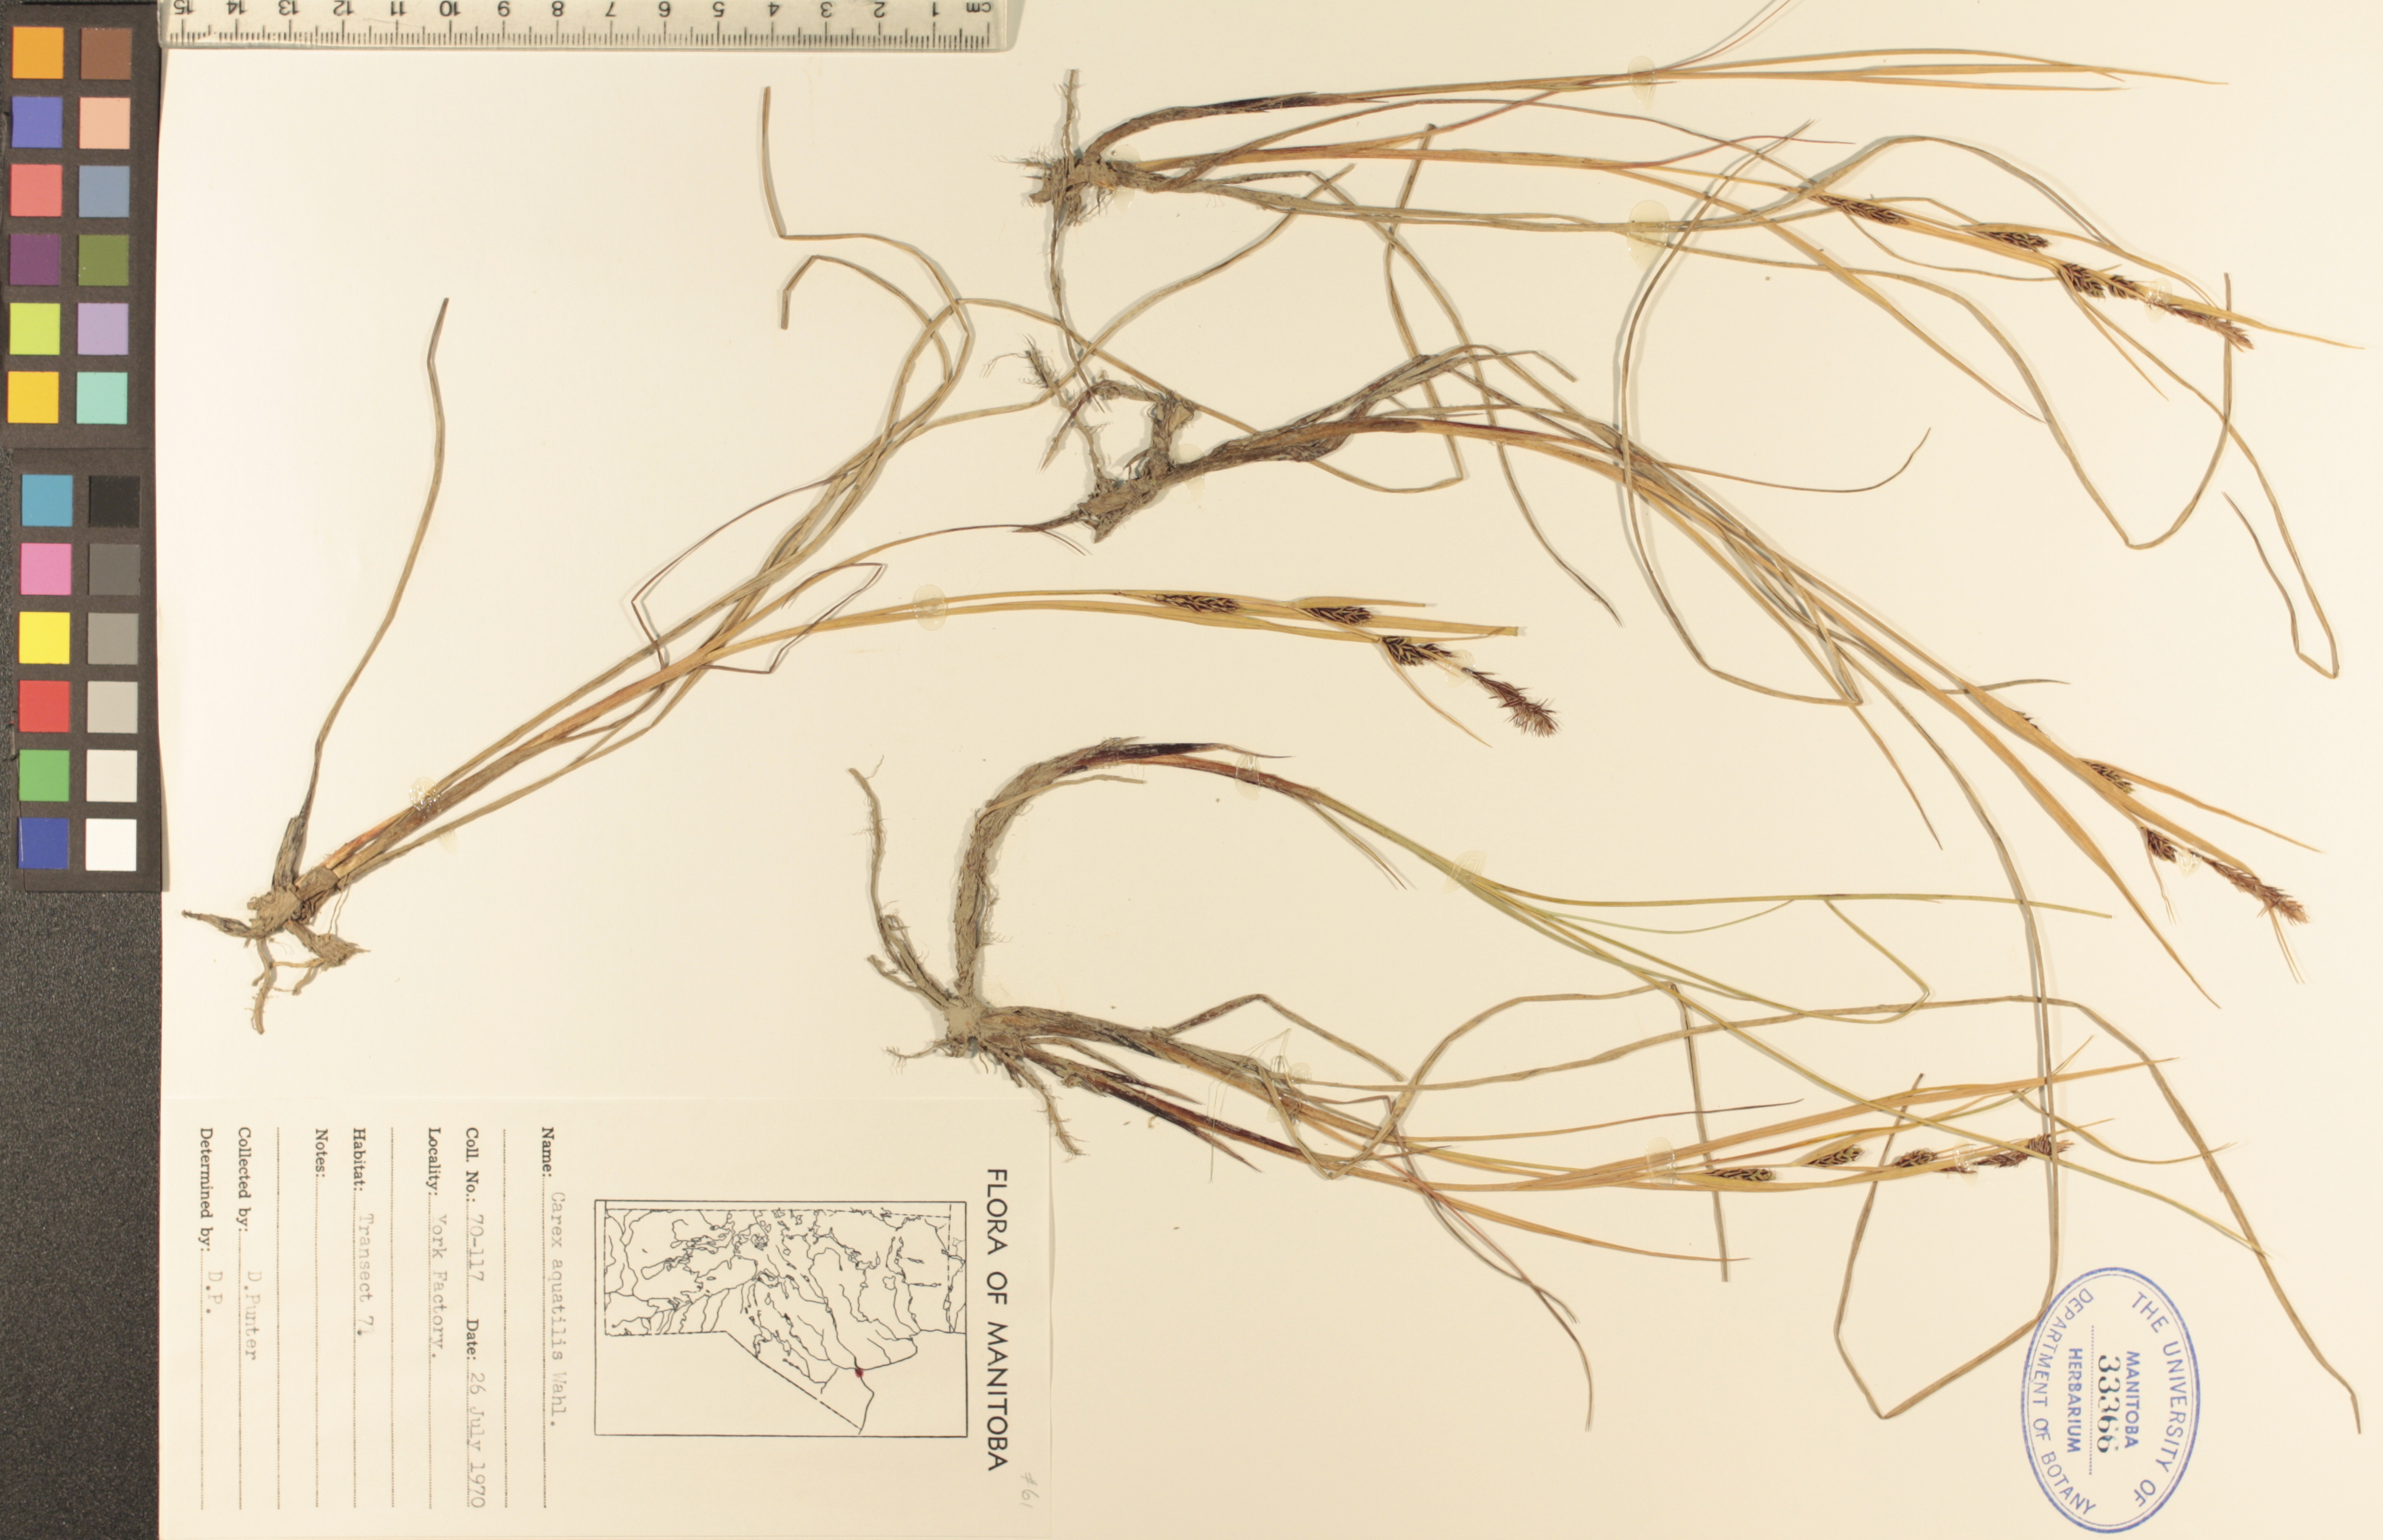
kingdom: Plantae
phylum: Tracheophyta
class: Liliopsida
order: Poales
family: Cyperaceae
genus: Carex
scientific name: Carex aquatilis
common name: Water sedge
